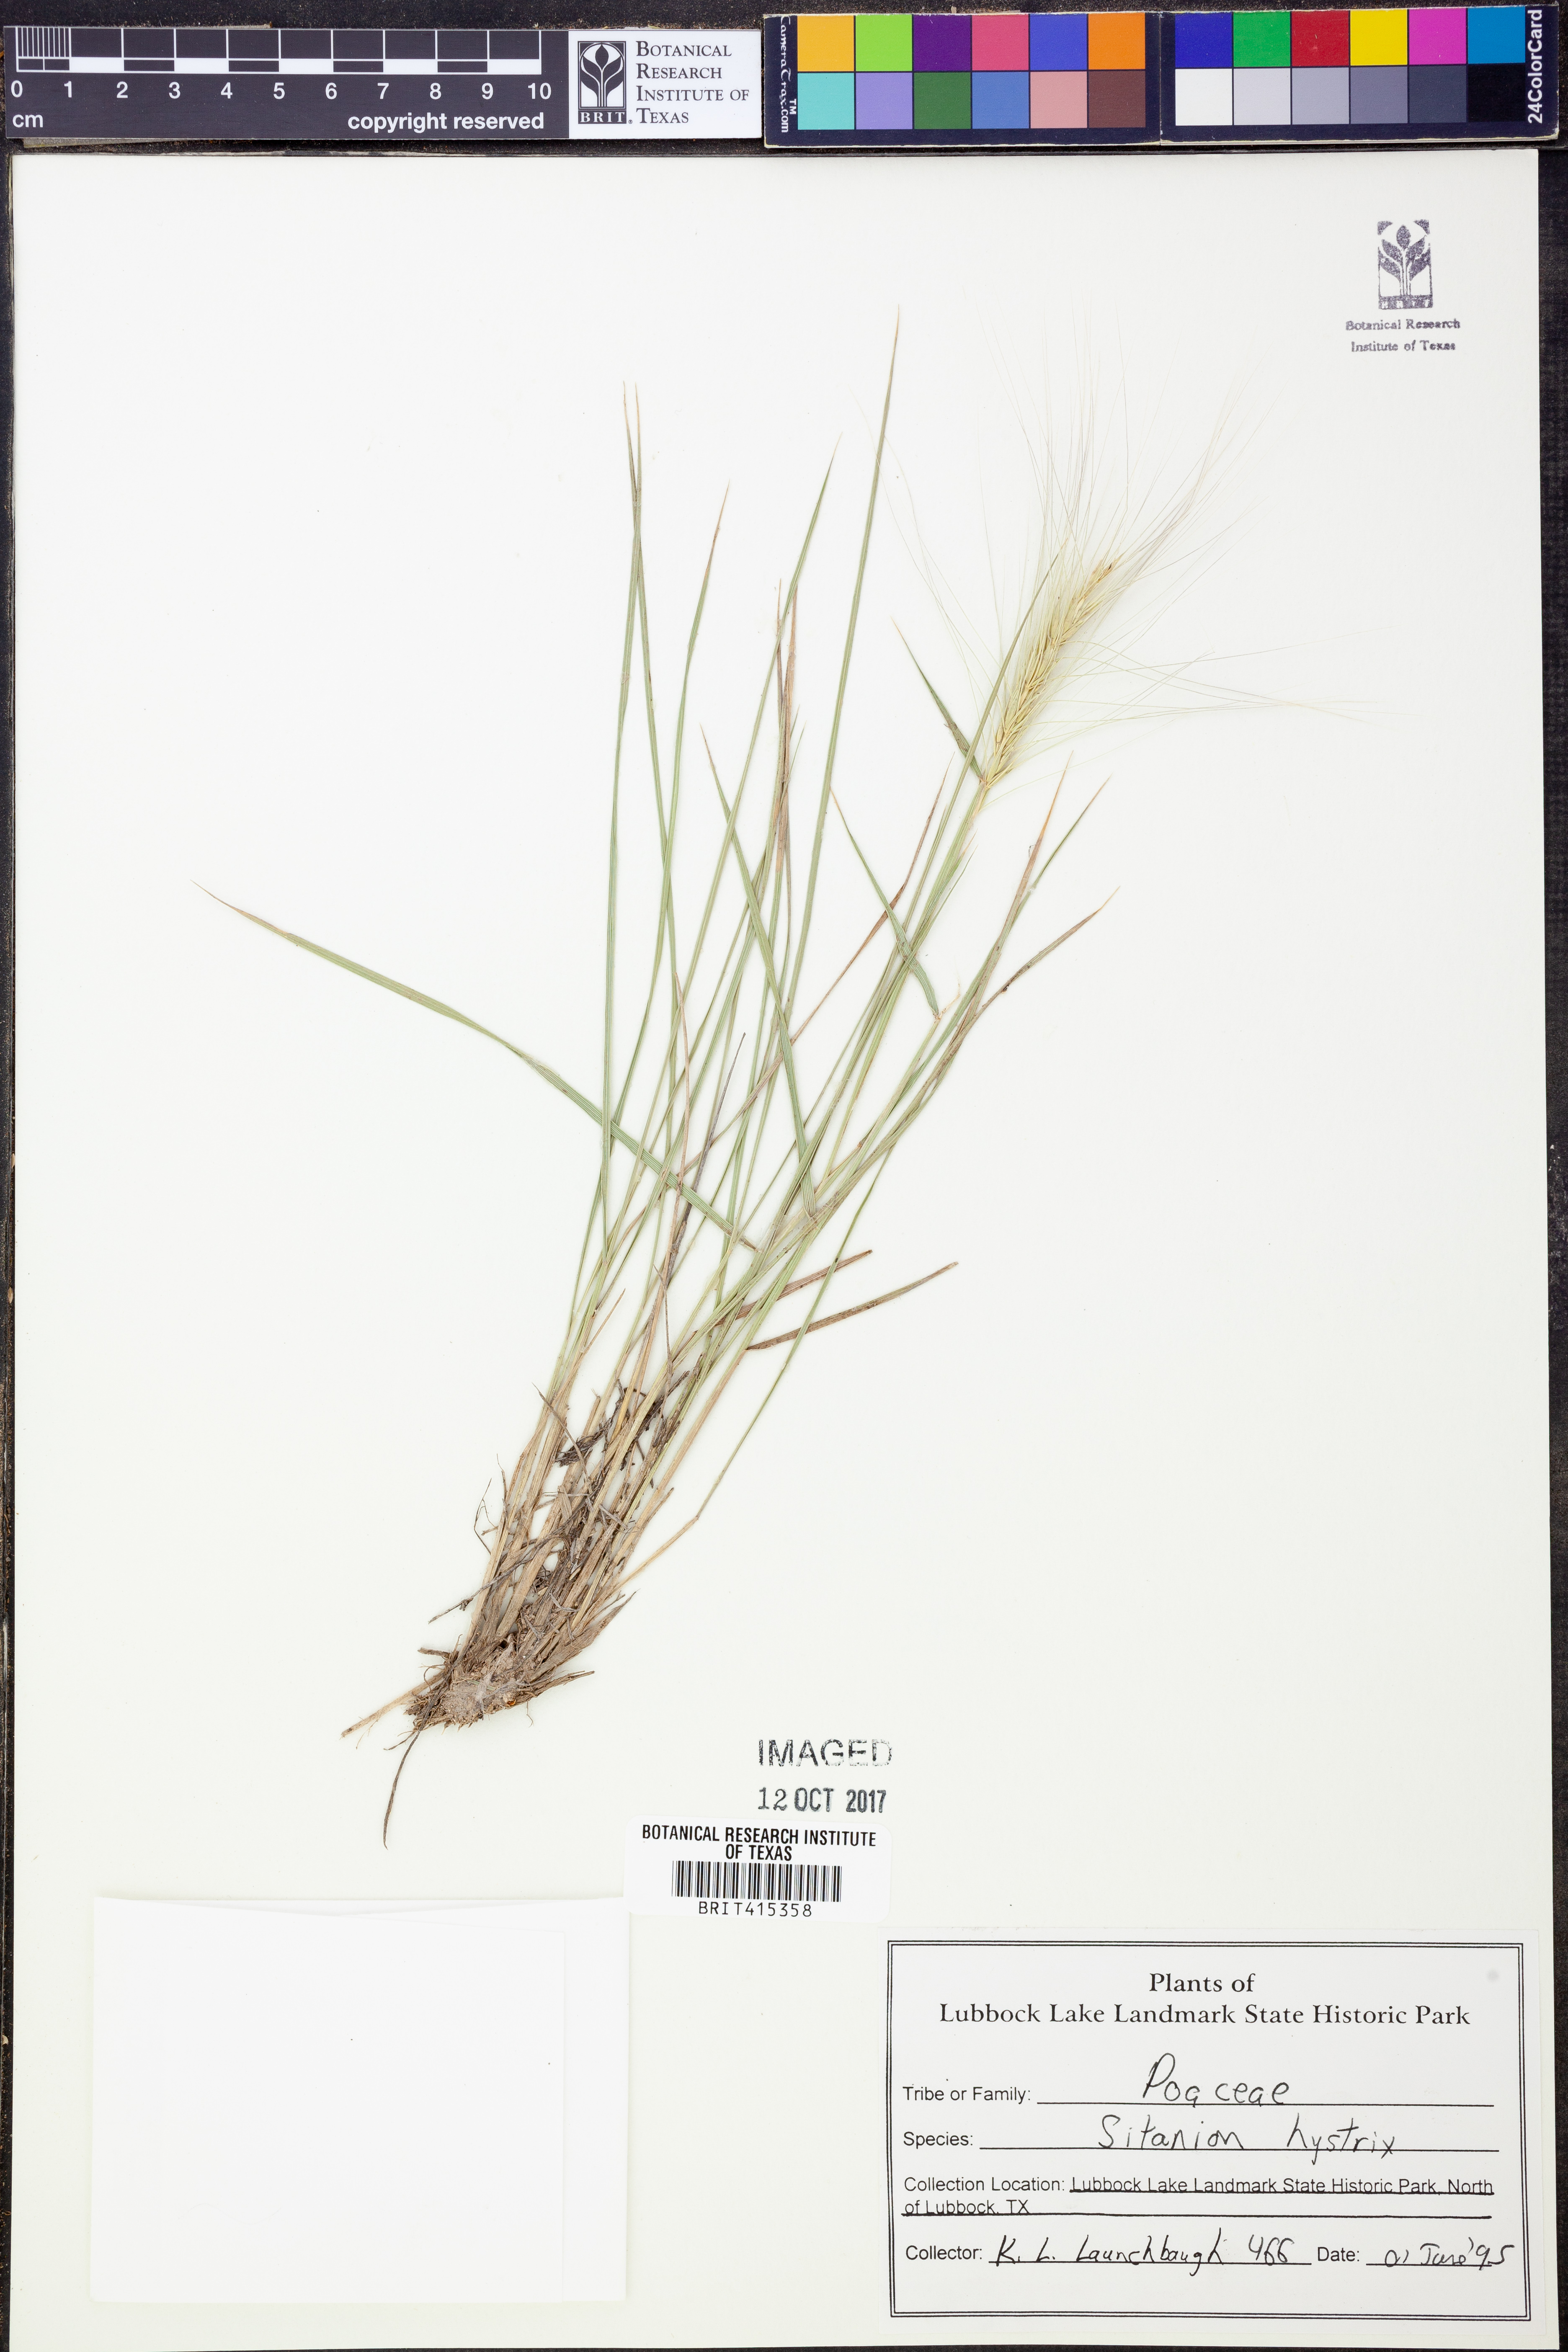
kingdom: Plantae
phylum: Tracheophyta
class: Liliopsida
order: Poales
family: Poaceae
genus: Elymus
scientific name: Elymus elymoides
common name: Bottlebrush squirreltail
